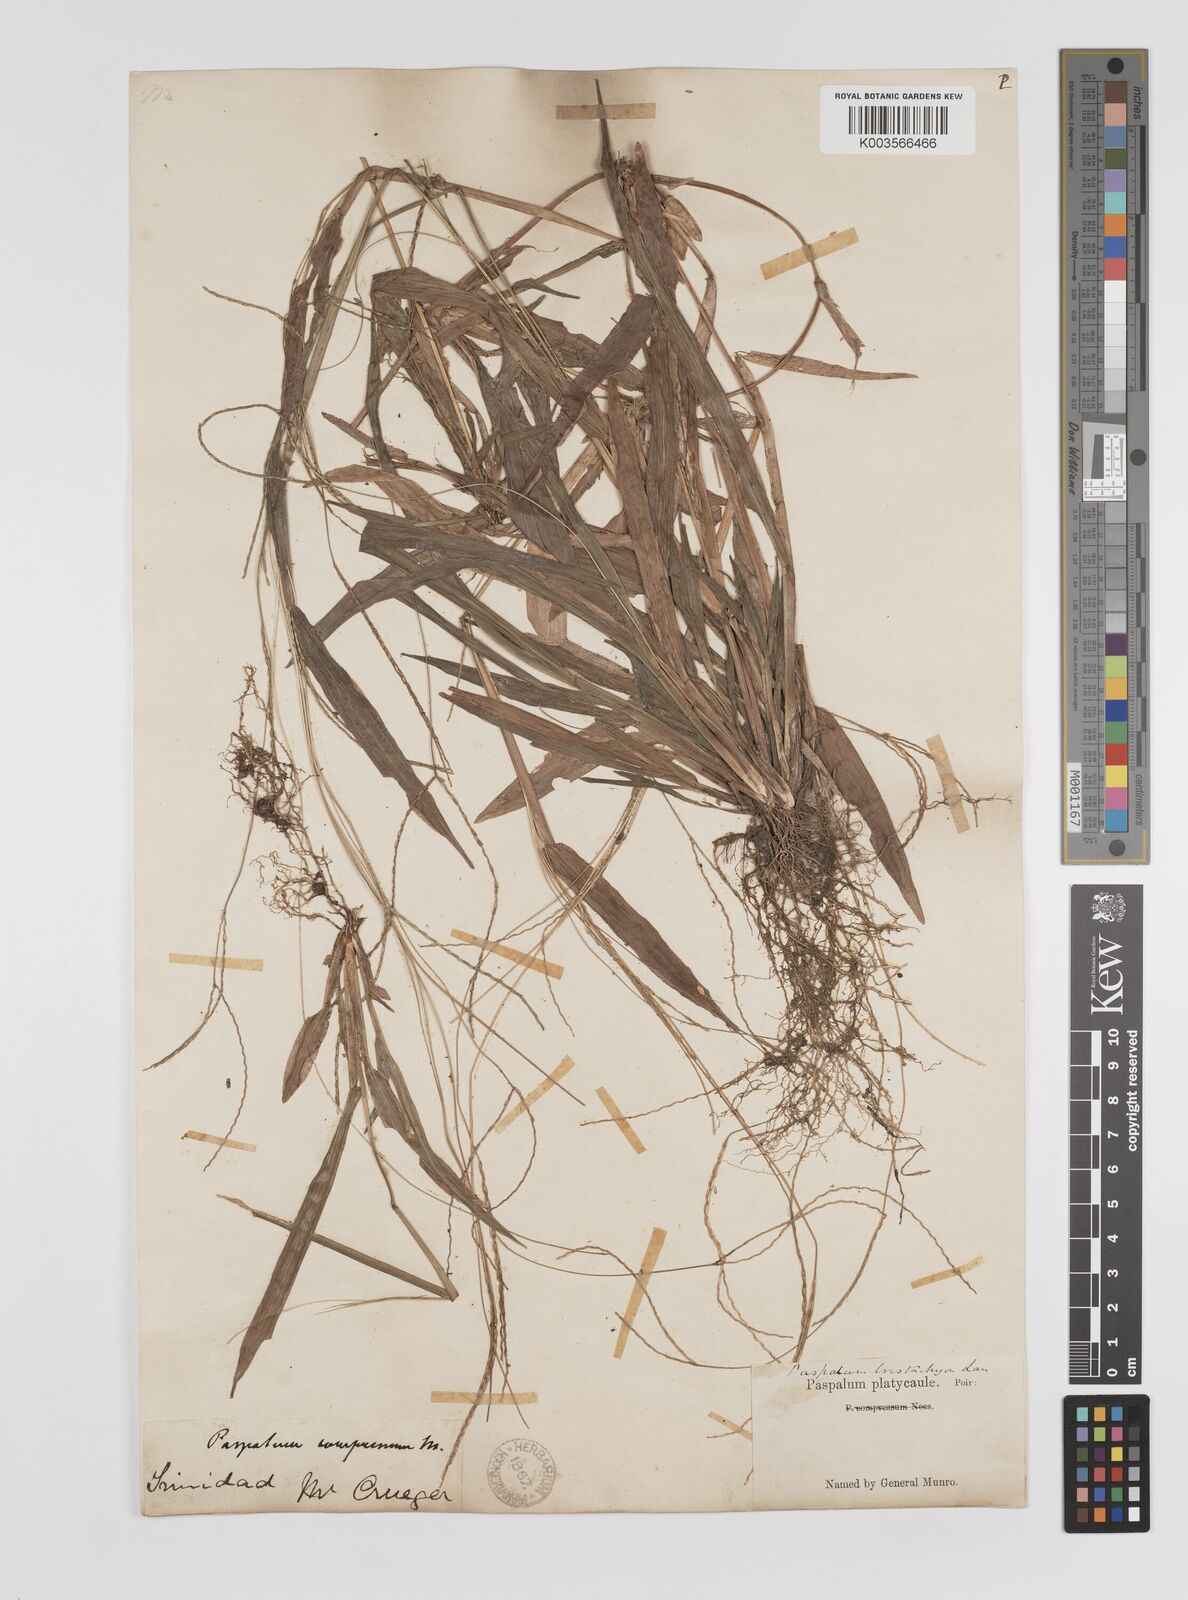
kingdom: Plantae
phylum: Tracheophyta
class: Liliopsida
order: Poales
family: Poaceae
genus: Axonopus
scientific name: Axonopus compressus
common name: American carpet grass
